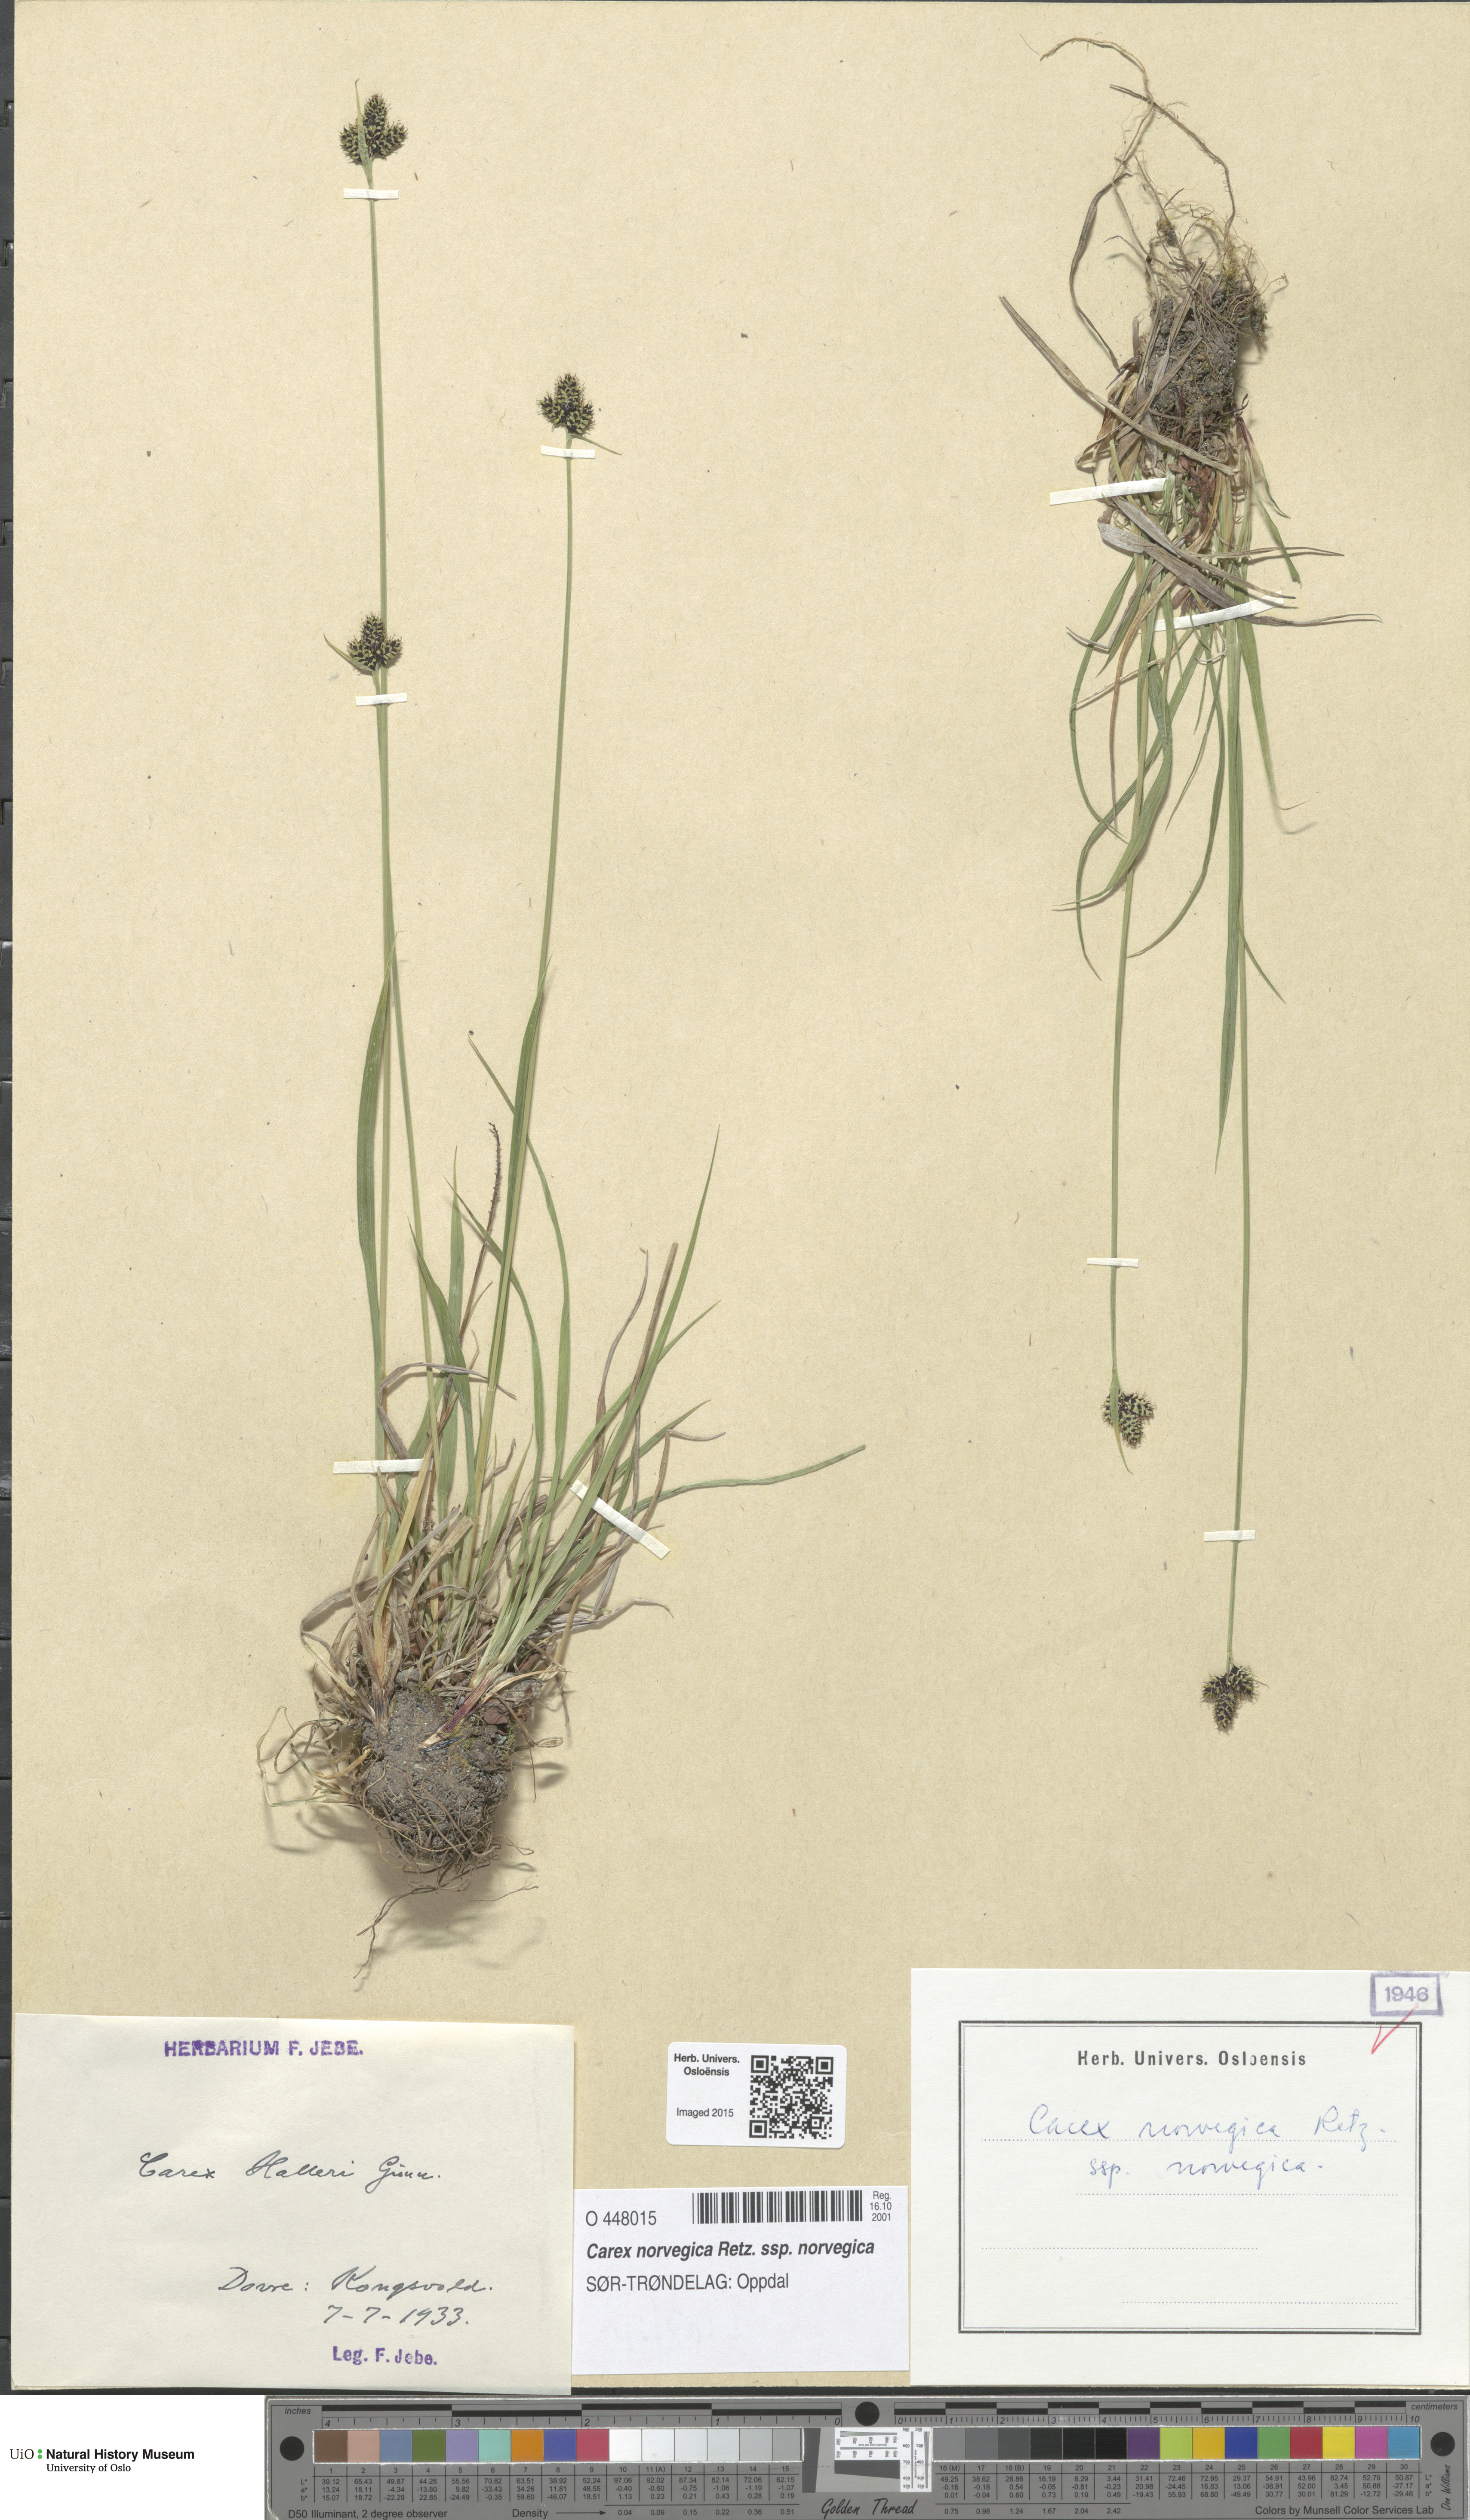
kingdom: Plantae
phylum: Tracheophyta
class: Liliopsida
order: Poales
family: Cyperaceae
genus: Carex
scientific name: Carex norvegica
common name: Close-headed alpine-sedge
